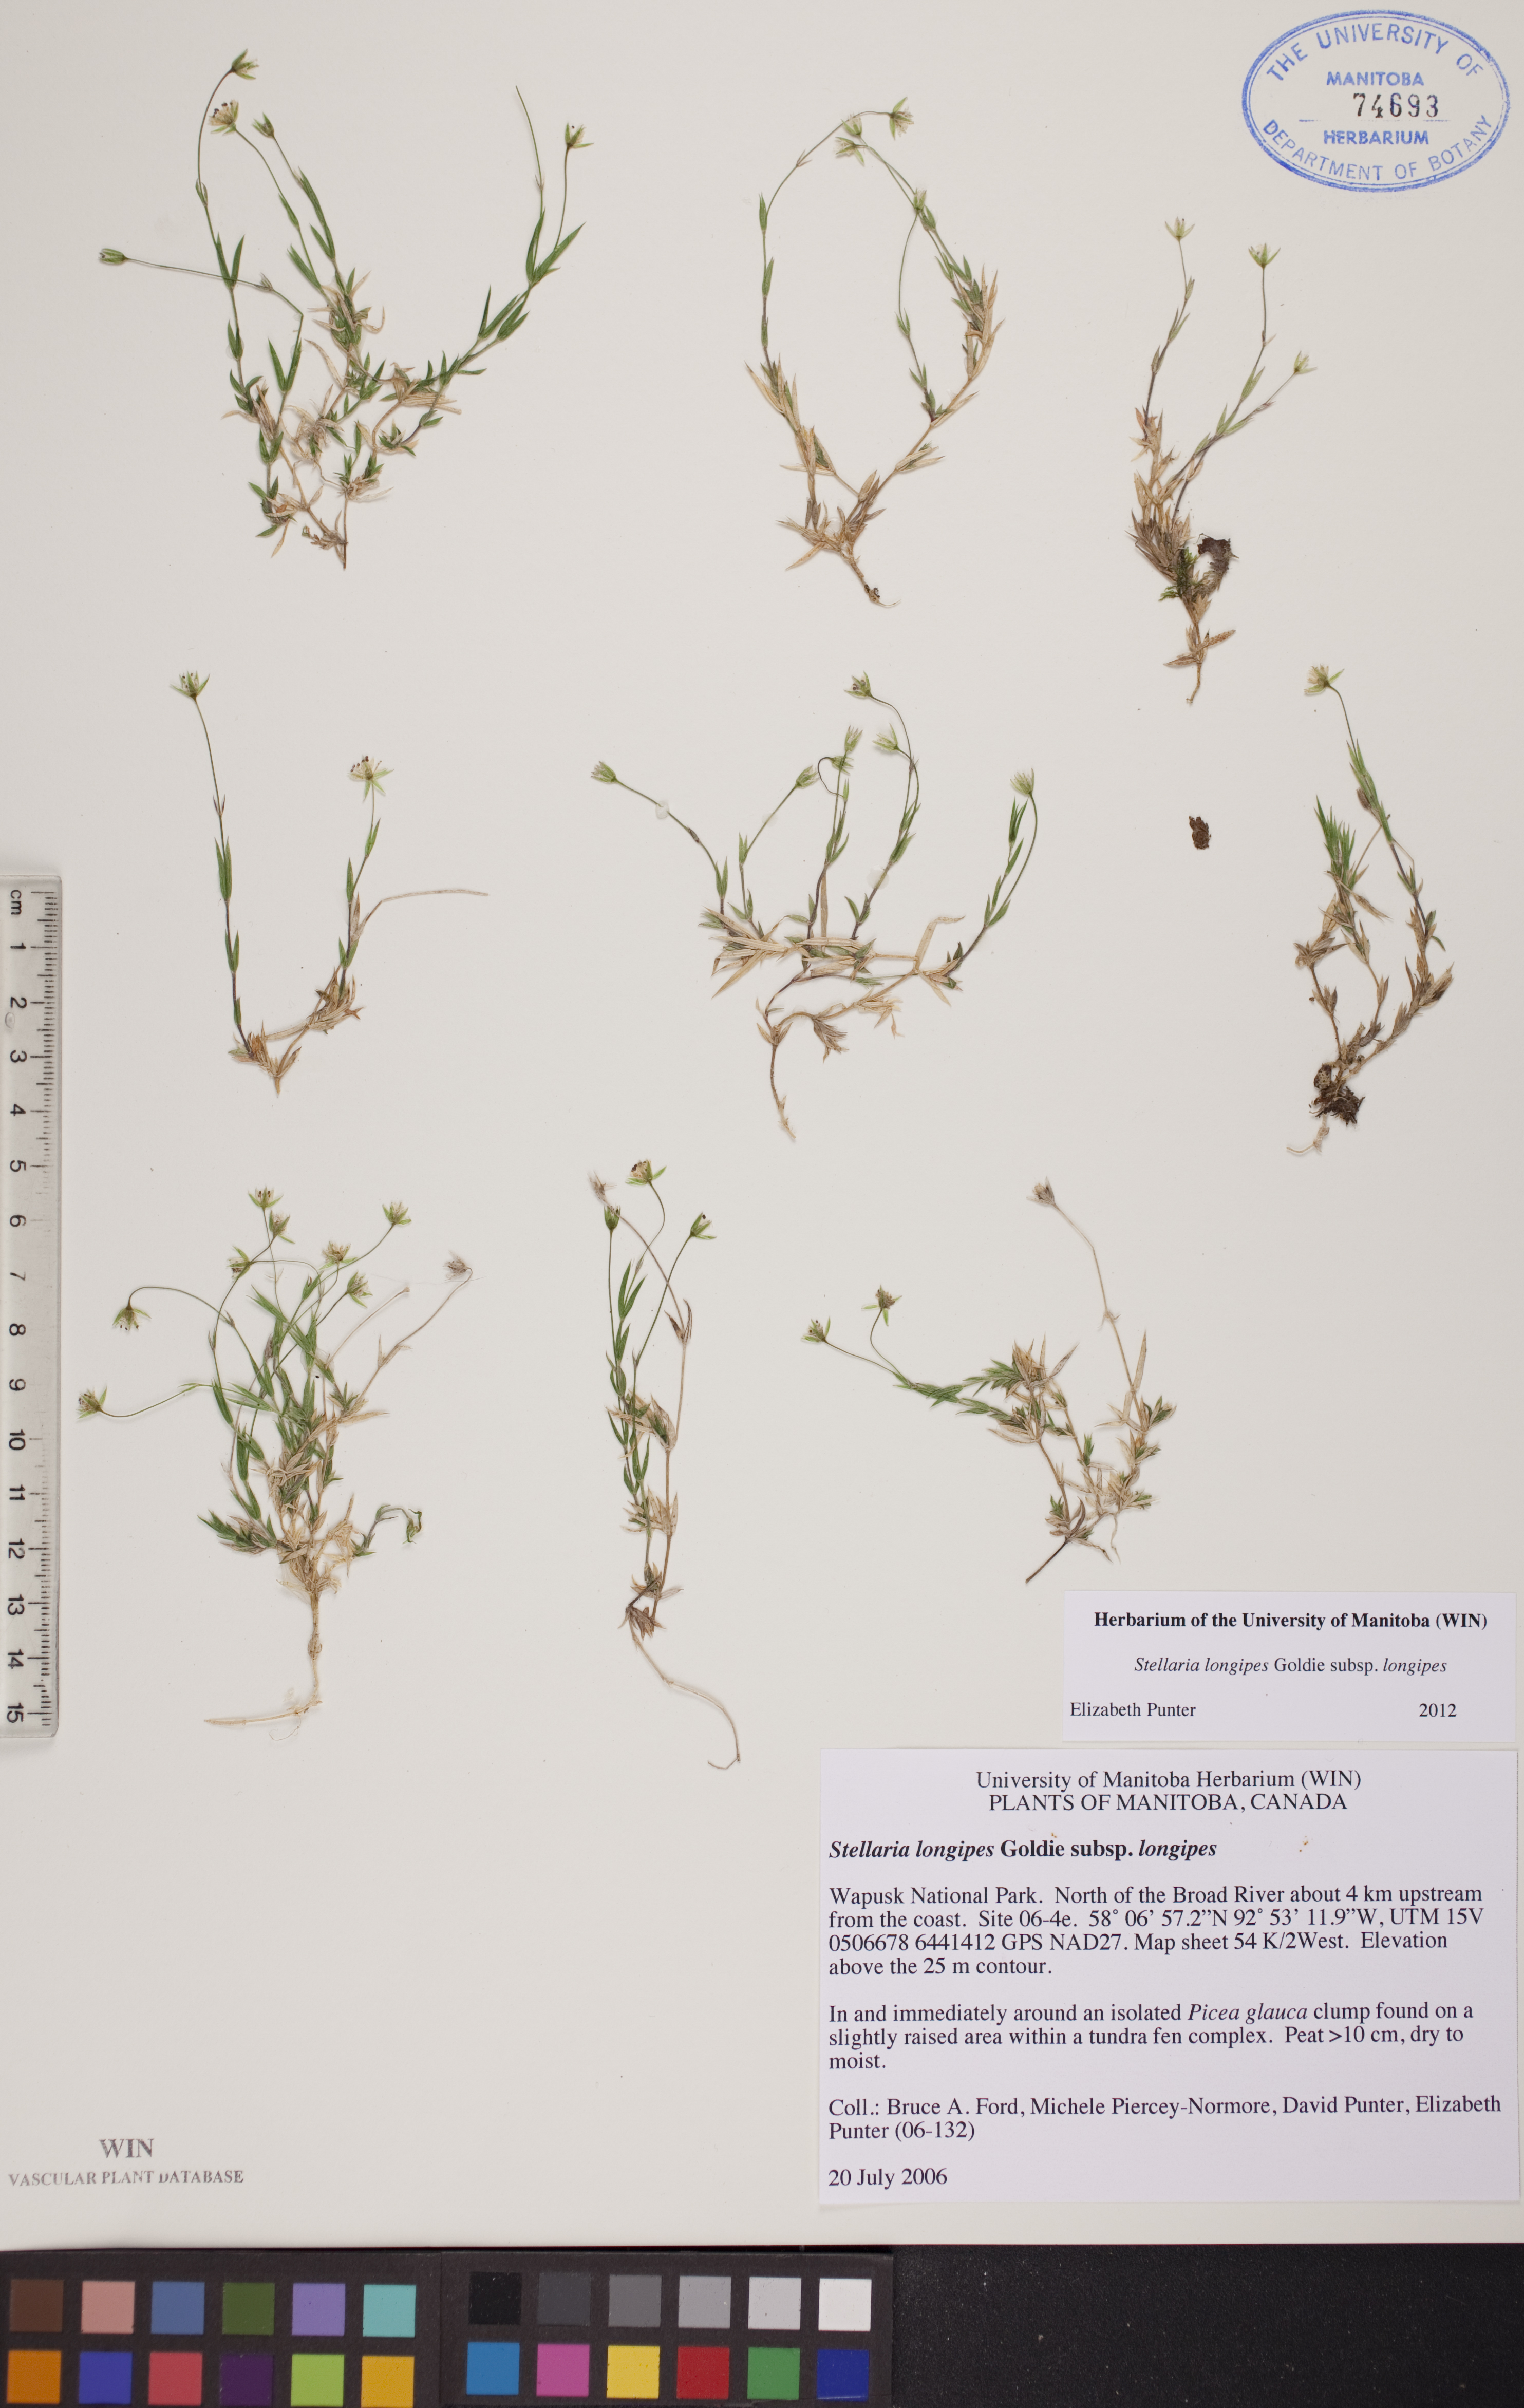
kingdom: Plantae
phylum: Tracheophyta
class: Magnoliopsida
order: Caryophyllales
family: Caryophyllaceae
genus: Stellaria
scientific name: Stellaria longipes
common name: Goldie's starwort
